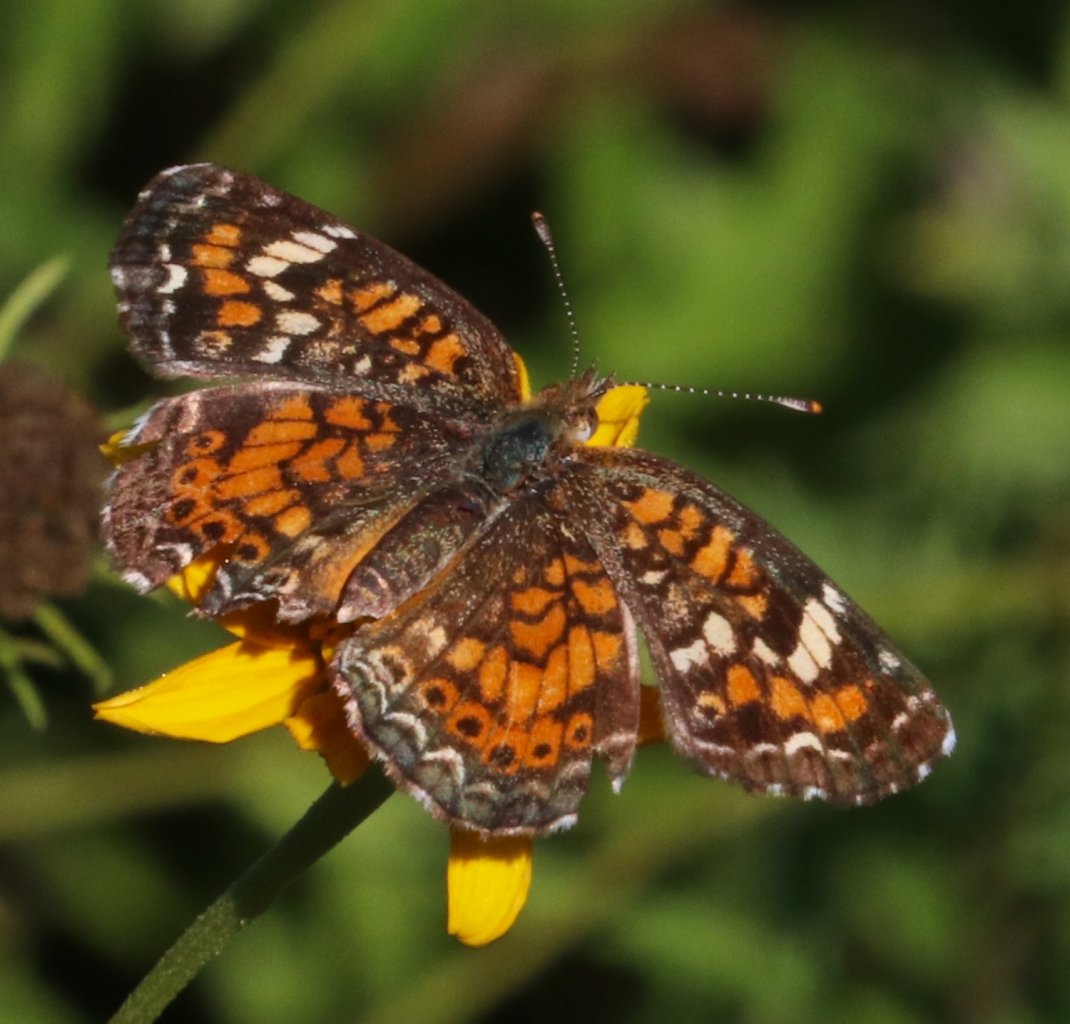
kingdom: Animalia
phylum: Arthropoda
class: Insecta
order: Lepidoptera
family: Nymphalidae
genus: Phyciodes
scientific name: Phyciodes phaon
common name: Phaon Crescent
